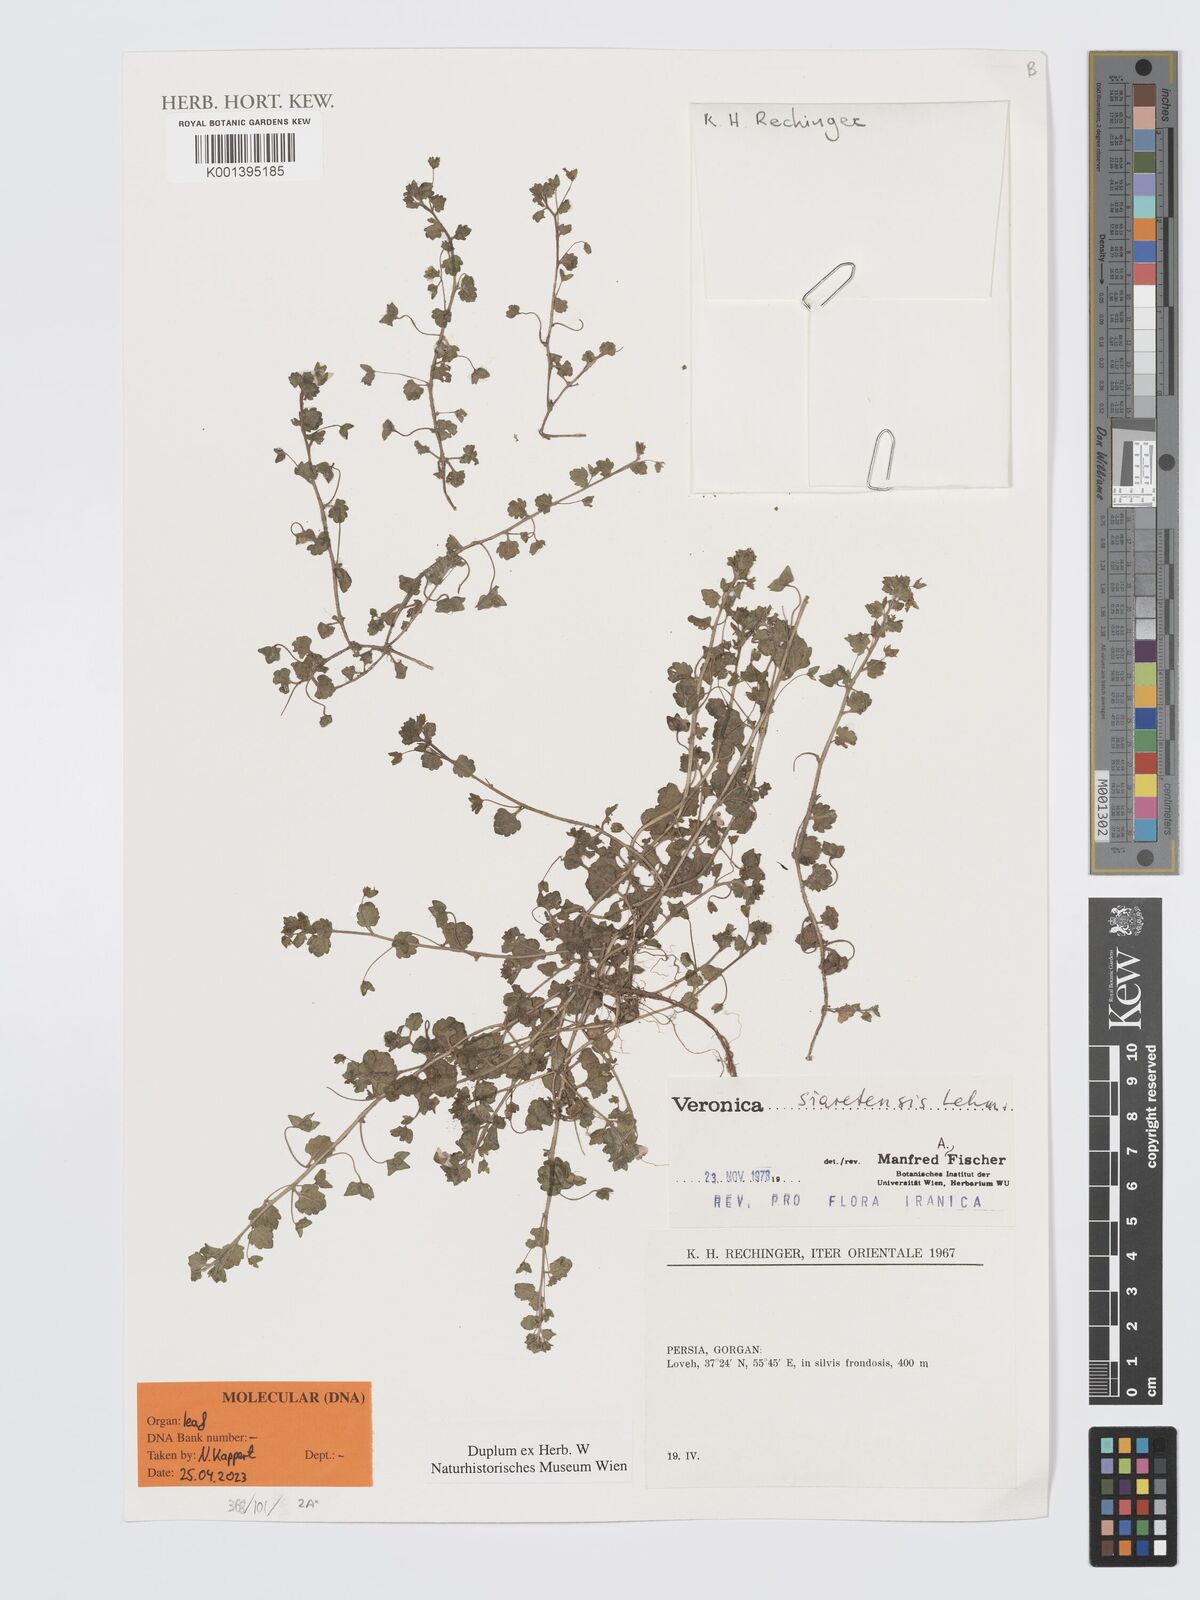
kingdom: Plantae
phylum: Tracheophyta
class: Magnoliopsida
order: Lamiales
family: Plantaginaceae
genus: Veronica
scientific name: Veronica siaretensis
